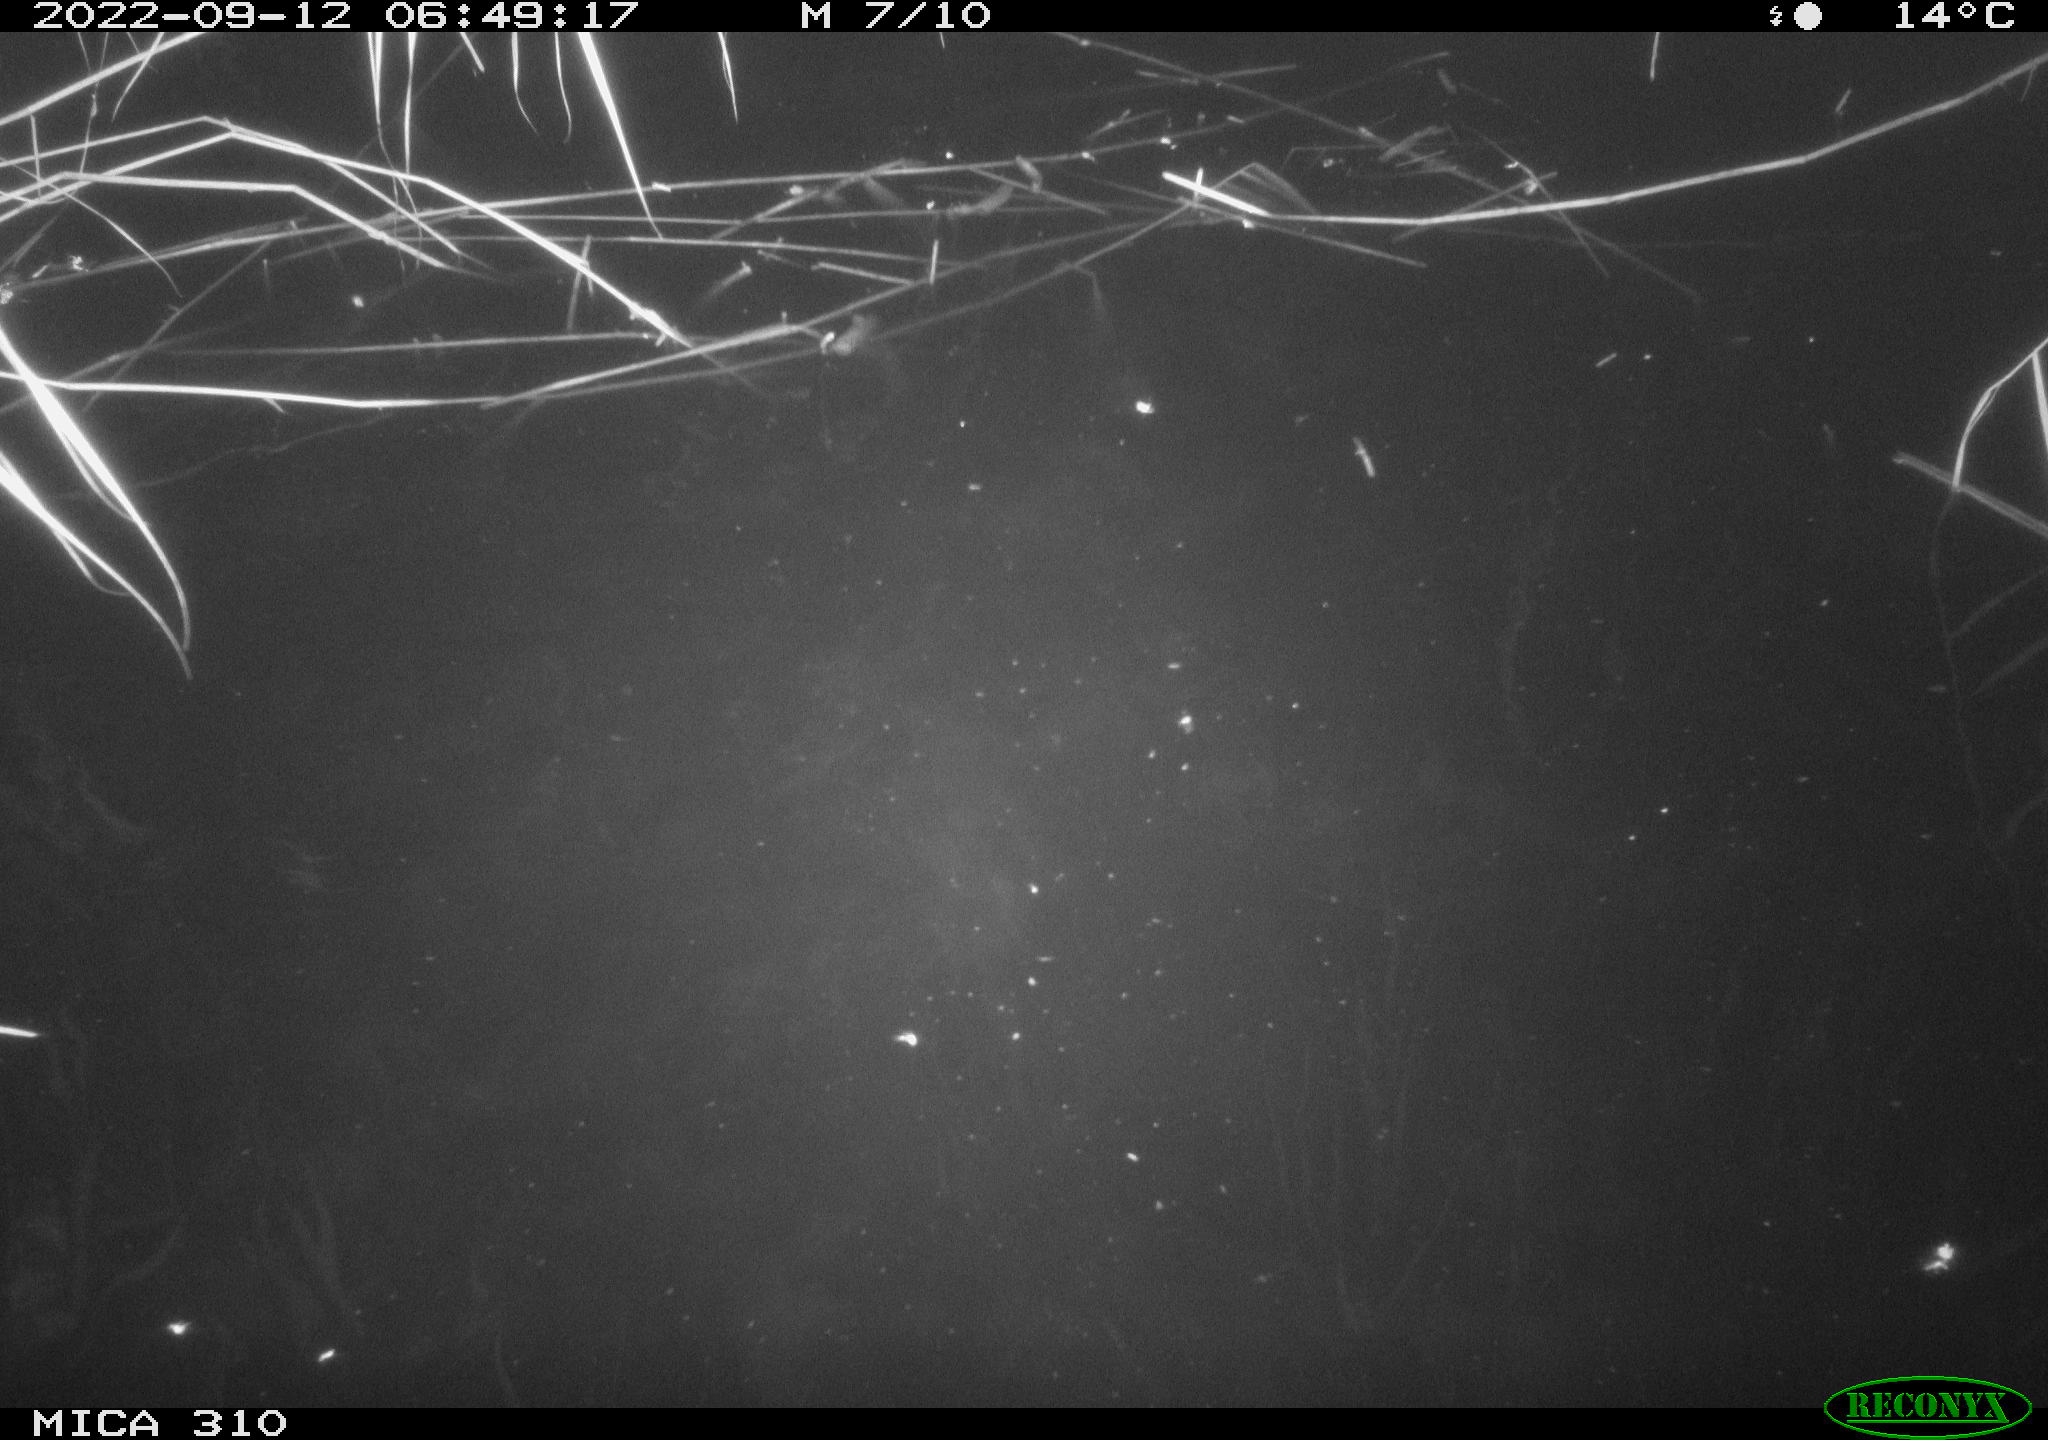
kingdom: Animalia
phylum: Chordata
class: Aves
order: Anseriformes
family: Anatidae
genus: Anas
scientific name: Anas
